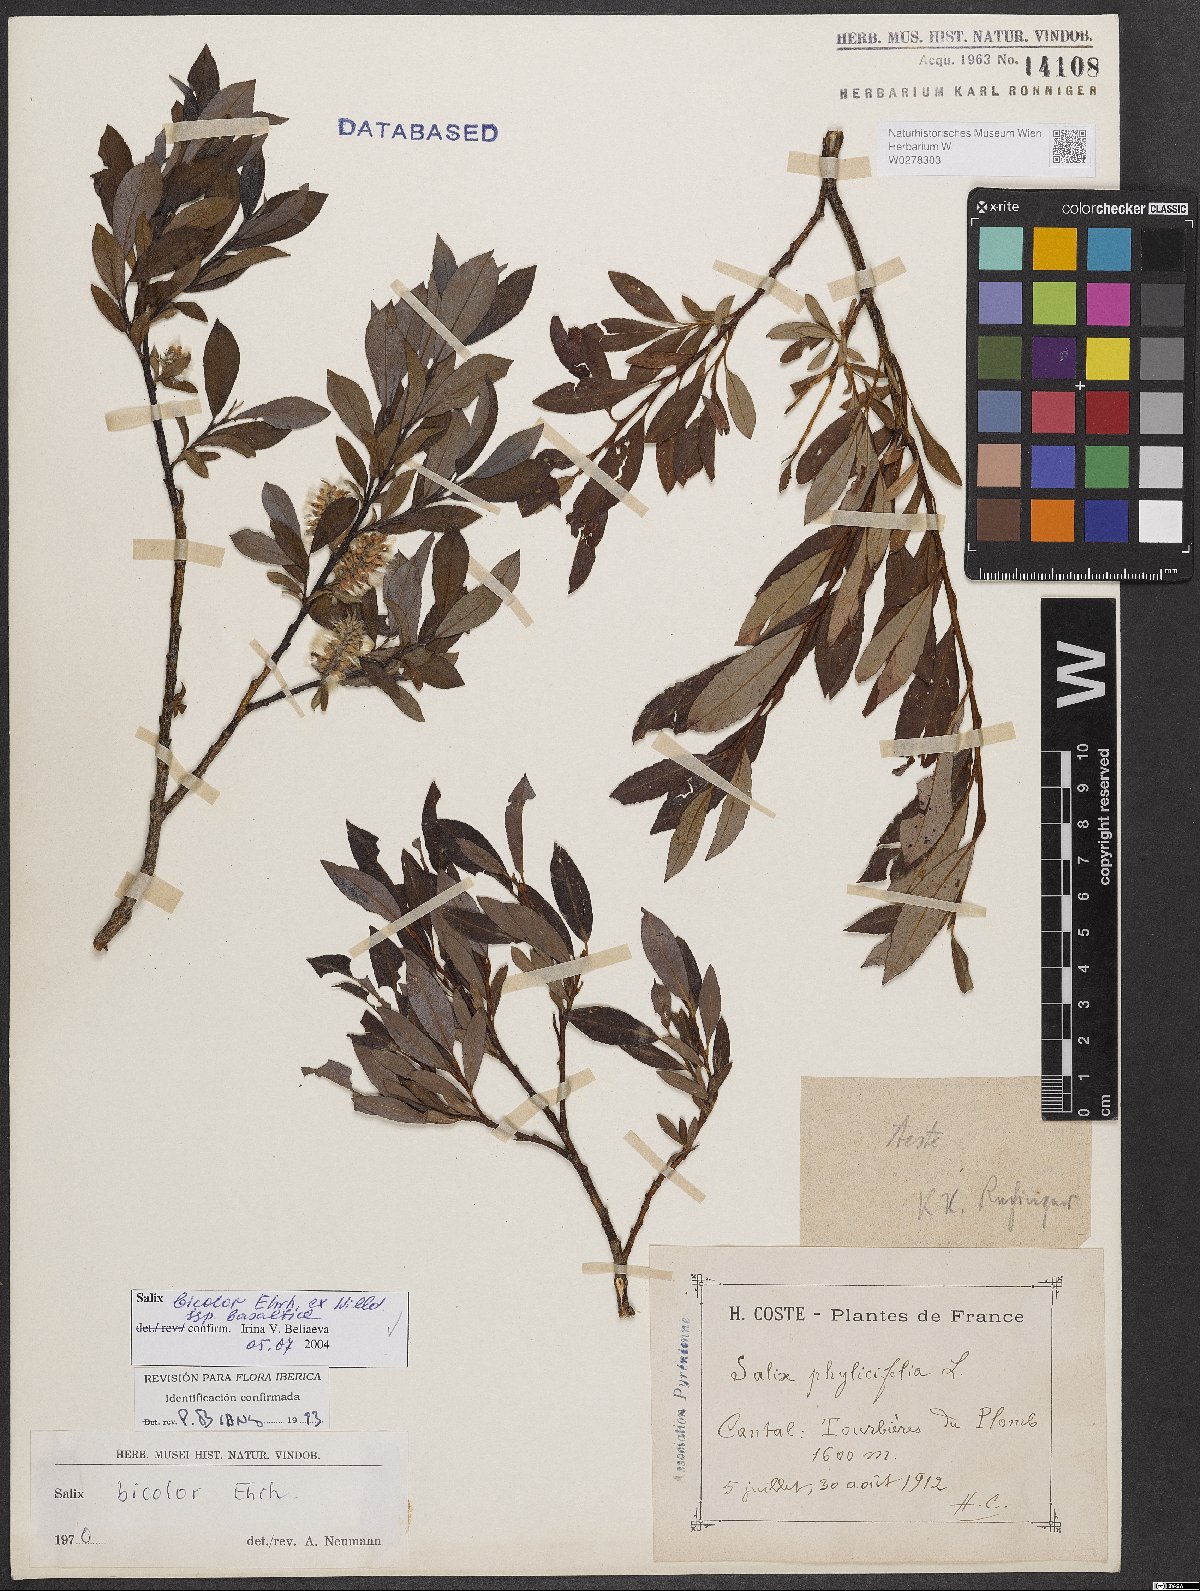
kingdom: Plantae
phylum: Tracheophyta
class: Magnoliopsida
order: Malpighiales
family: Salicaceae
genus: Salix
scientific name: Salix basaltica
